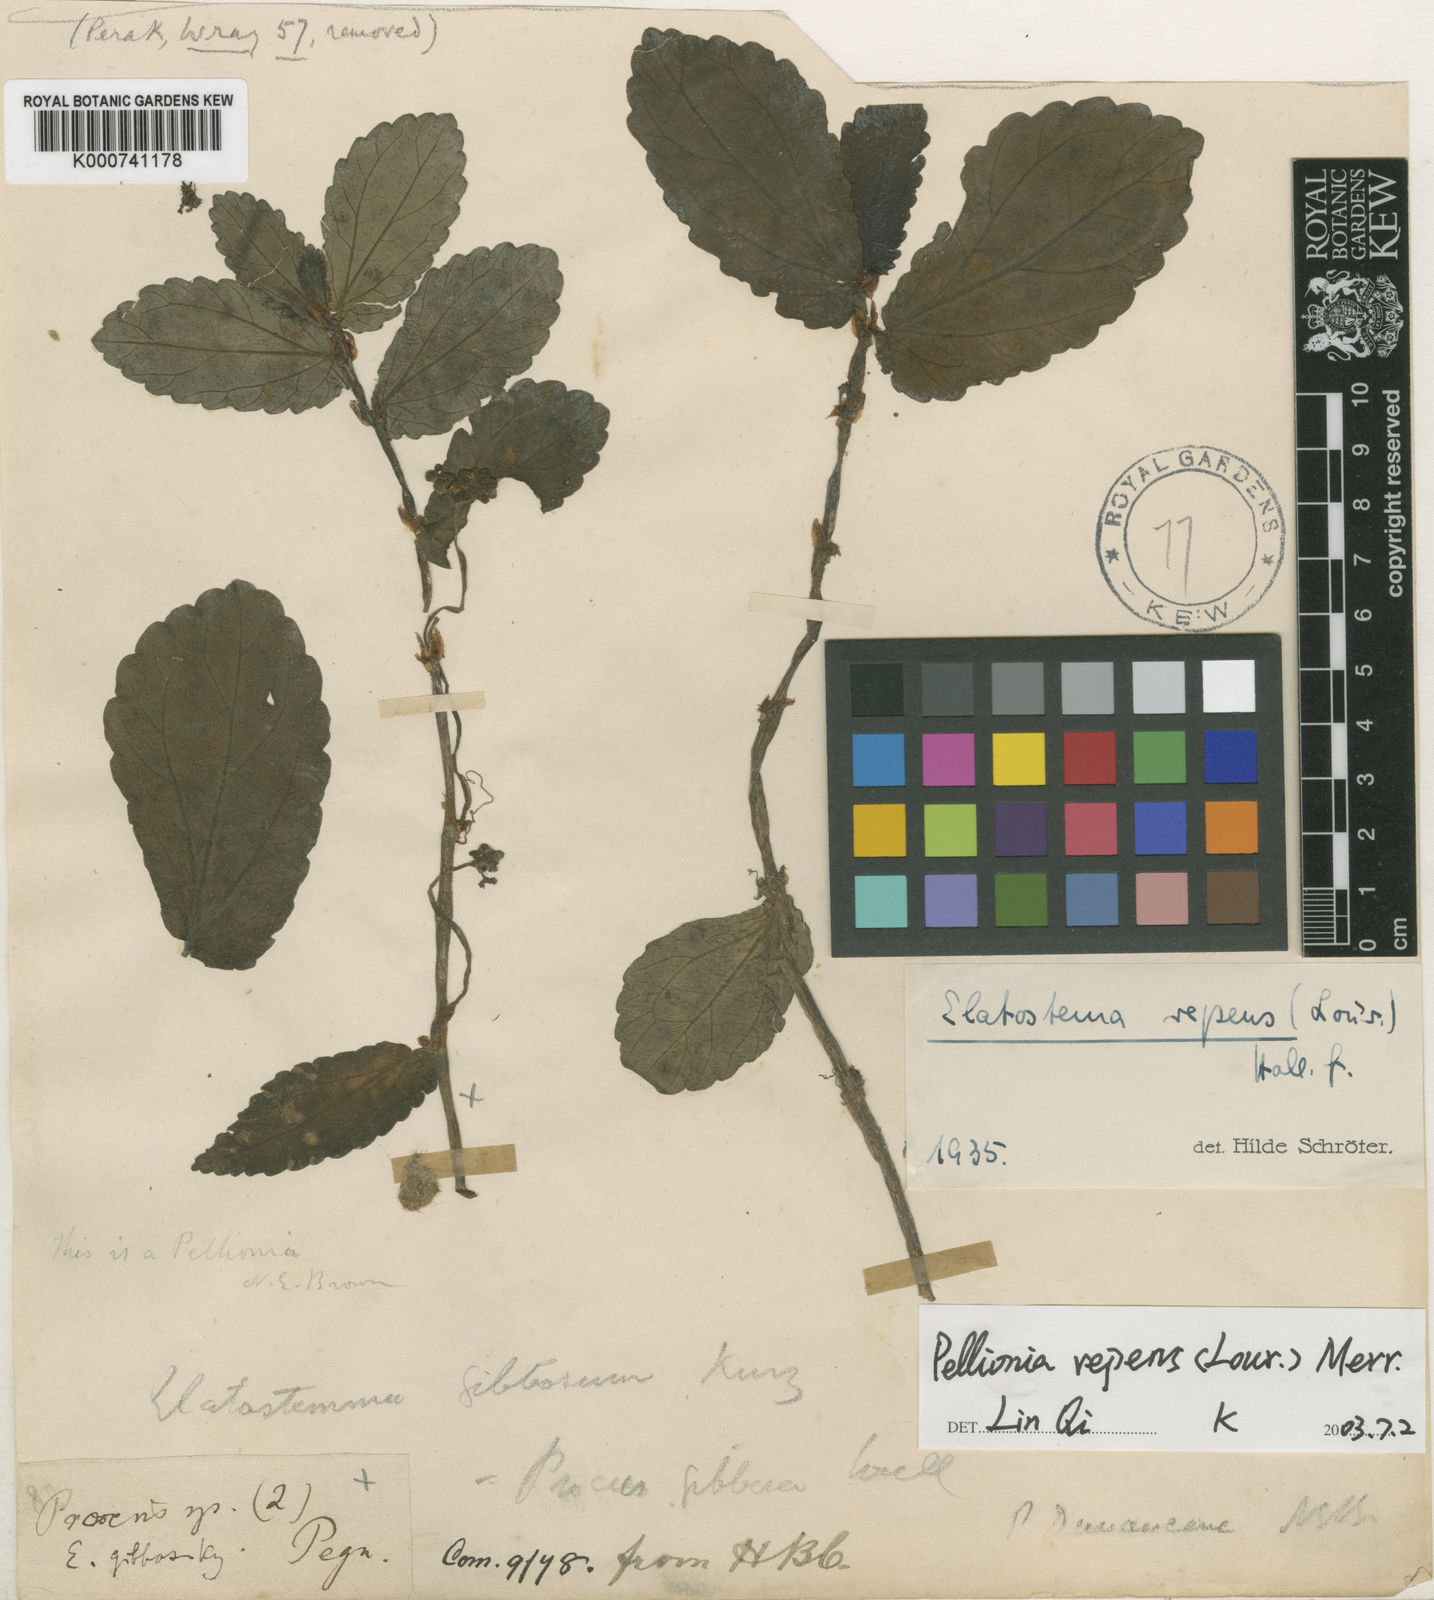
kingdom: Plantae
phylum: Tracheophyta
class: Magnoliopsida
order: Rosales
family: Urticaceae
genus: Procris
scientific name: Procris repens
